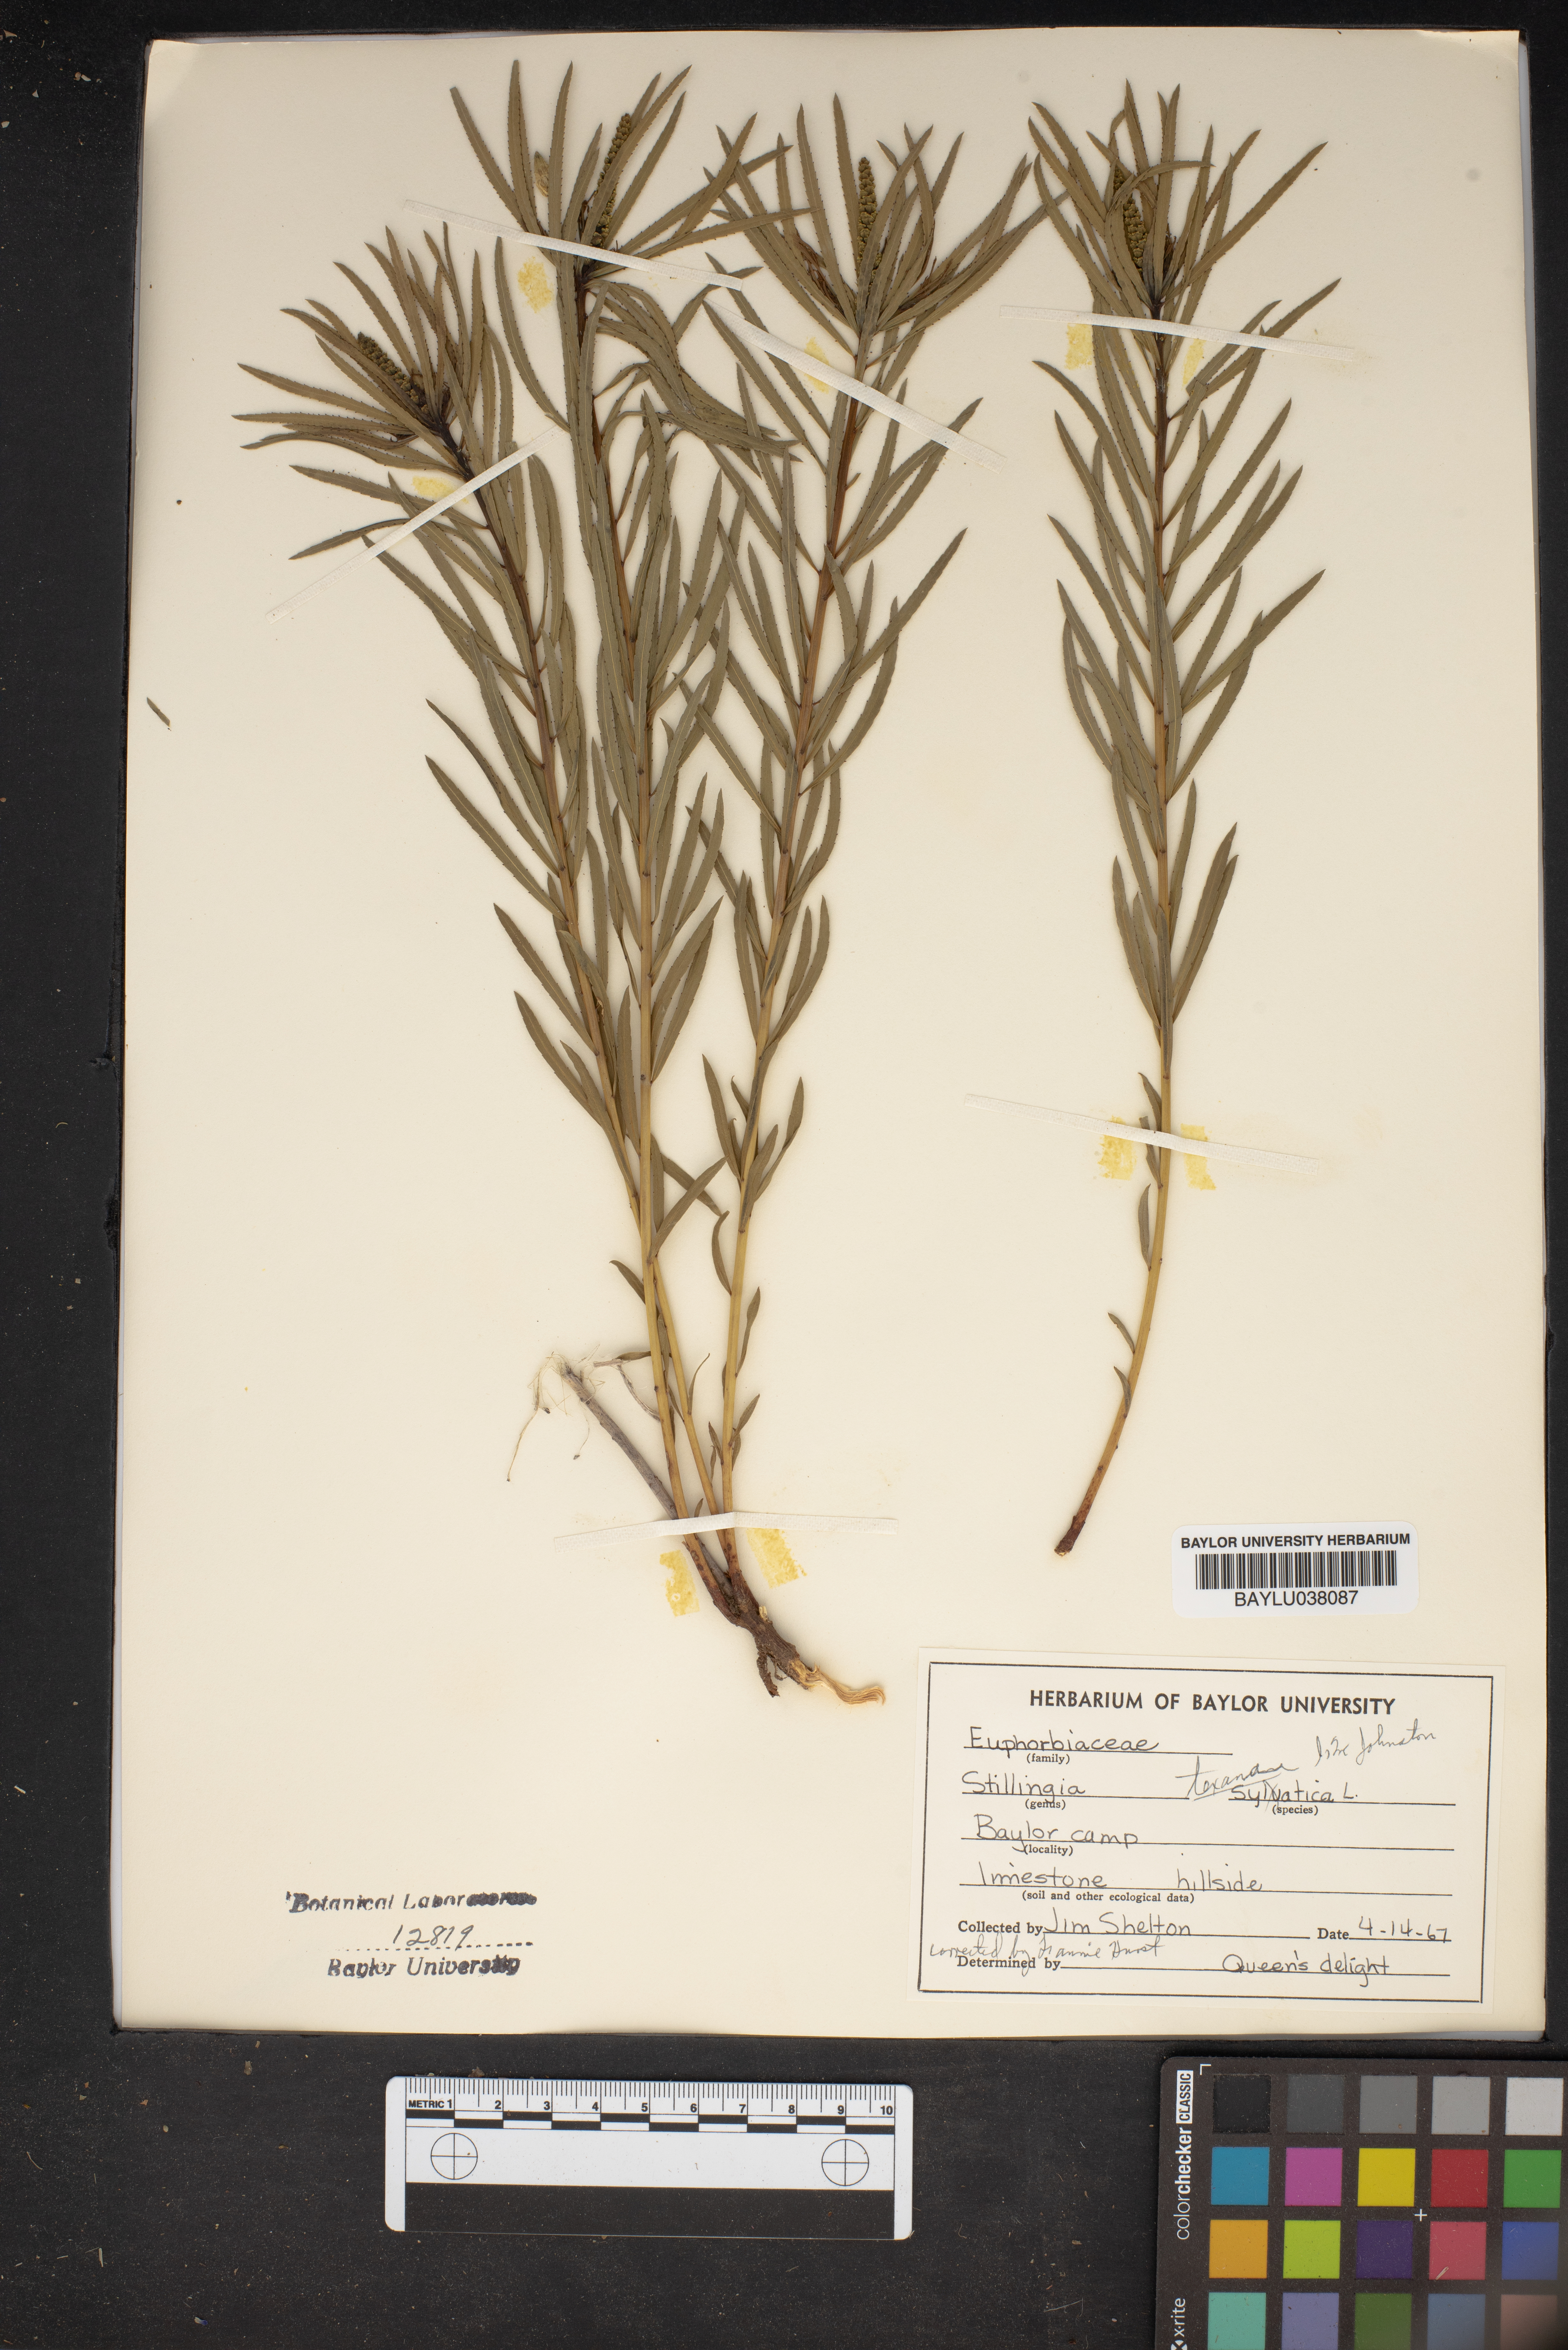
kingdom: Plantae
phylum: Tracheophyta
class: Magnoliopsida
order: Malpighiales
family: Euphorbiaceae
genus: Stillingia
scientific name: Stillingia texana
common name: Texas stillingia
